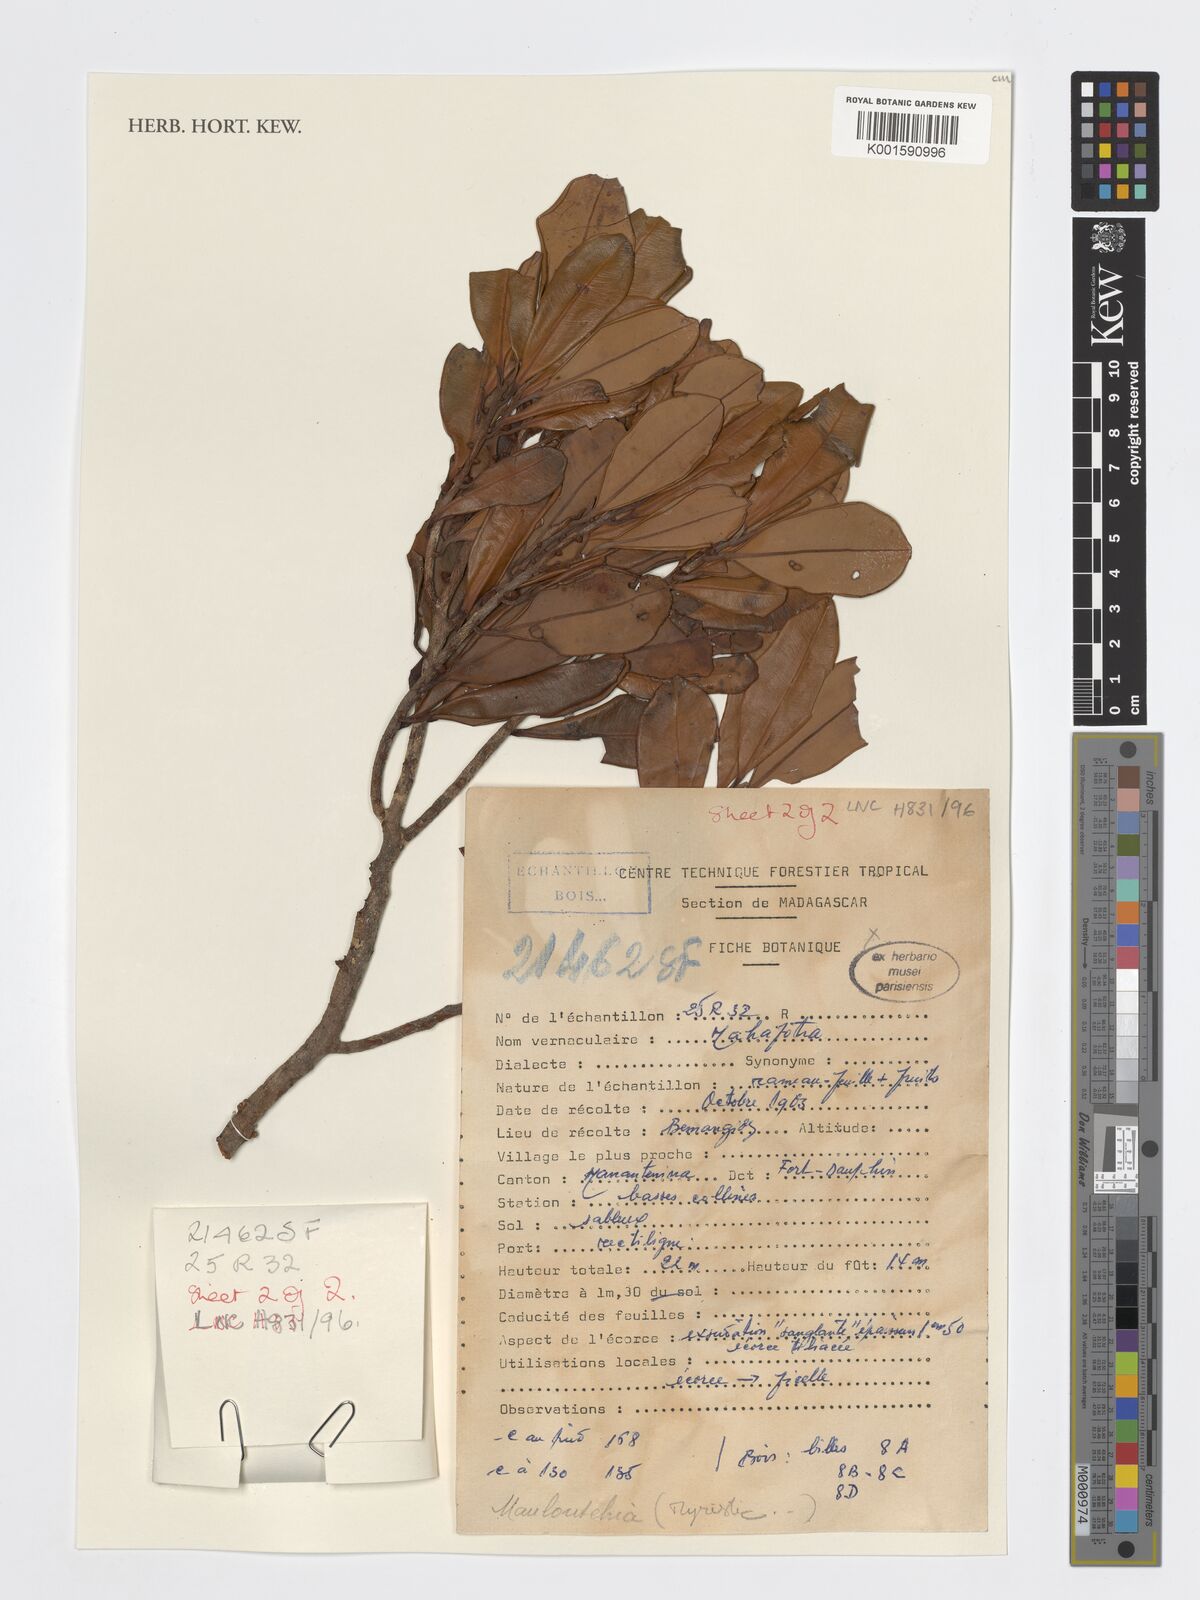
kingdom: Plantae
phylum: Tracheophyta
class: Magnoliopsida
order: Magnoliales
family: Myristicaceae
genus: Mauloutchia
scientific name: Mauloutchia
